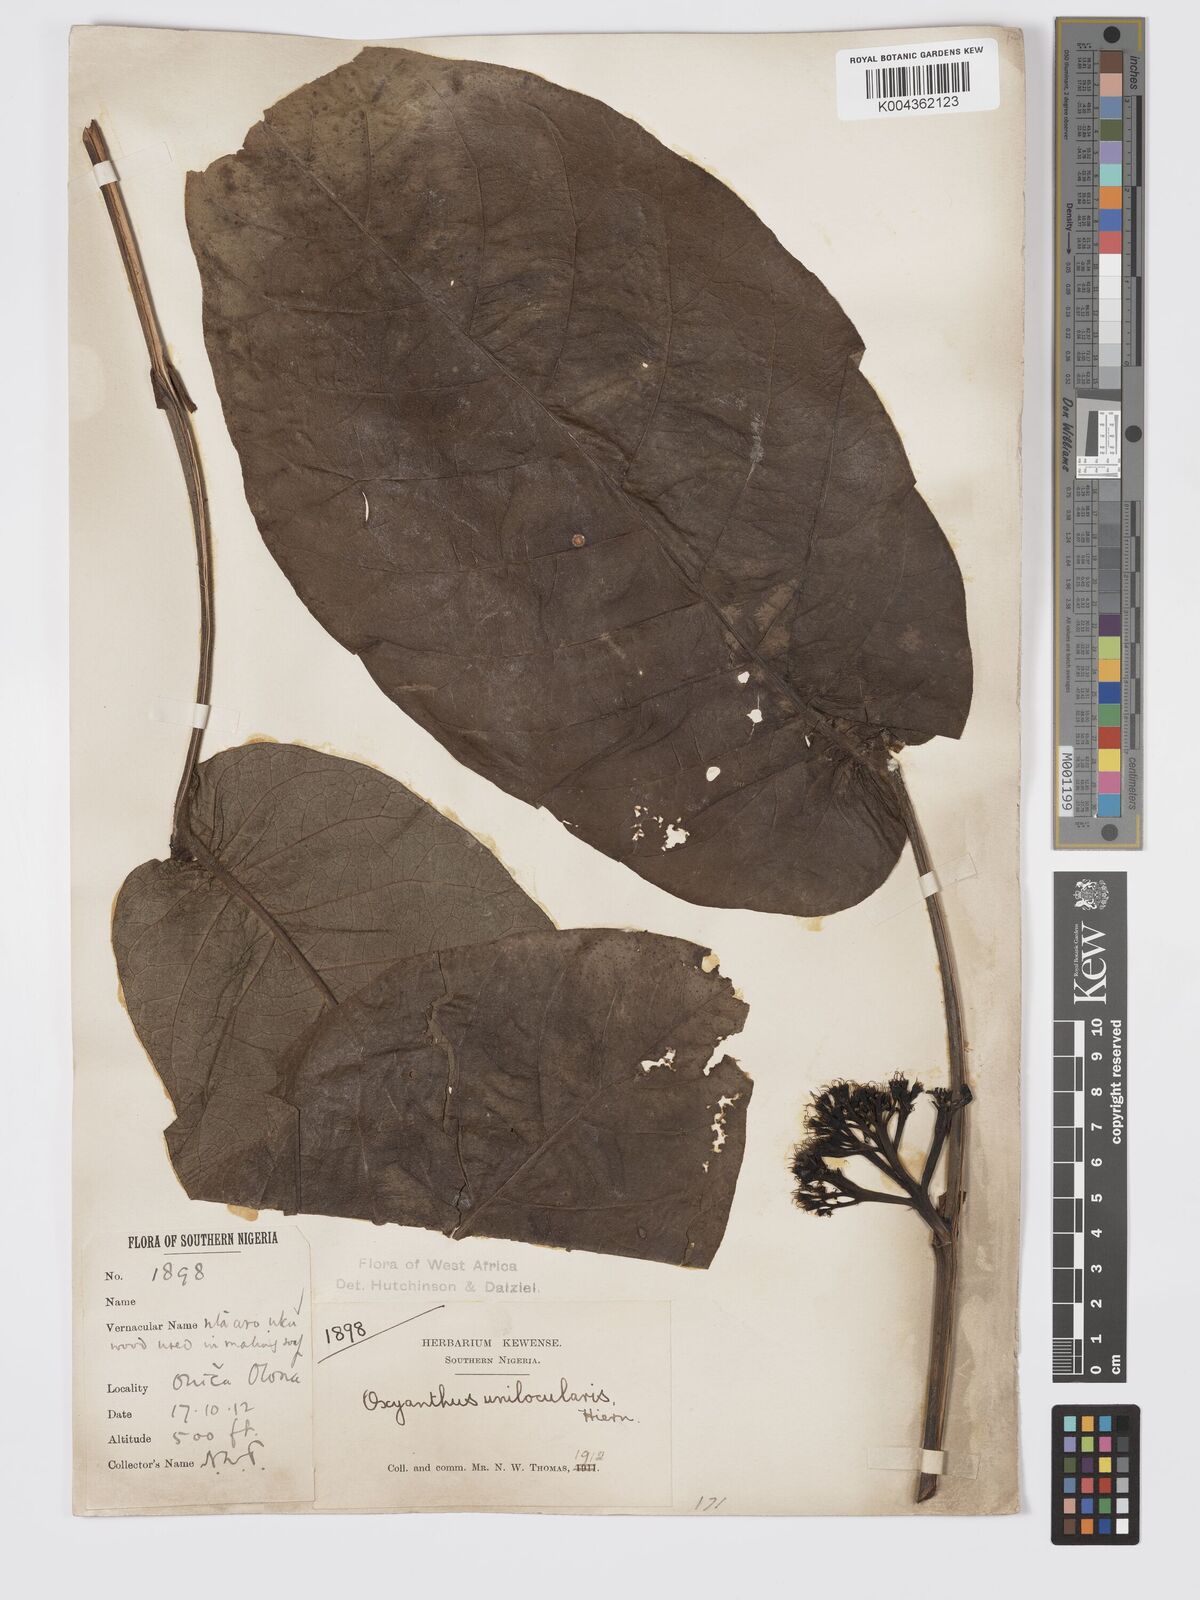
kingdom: Plantae
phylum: Tracheophyta
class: Magnoliopsida
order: Gentianales
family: Rubiaceae
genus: Oxyanthus
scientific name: Oxyanthus unilocularis
